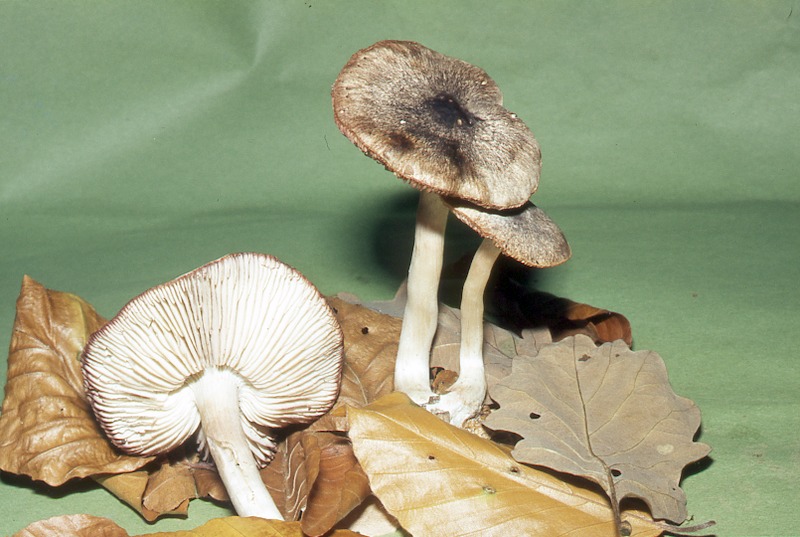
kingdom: Fungi
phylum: Basidiomycota
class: Agaricomycetes
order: Agaricales
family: Tricholomataceae
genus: Tricholoma
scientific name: Tricholoma orirubens
